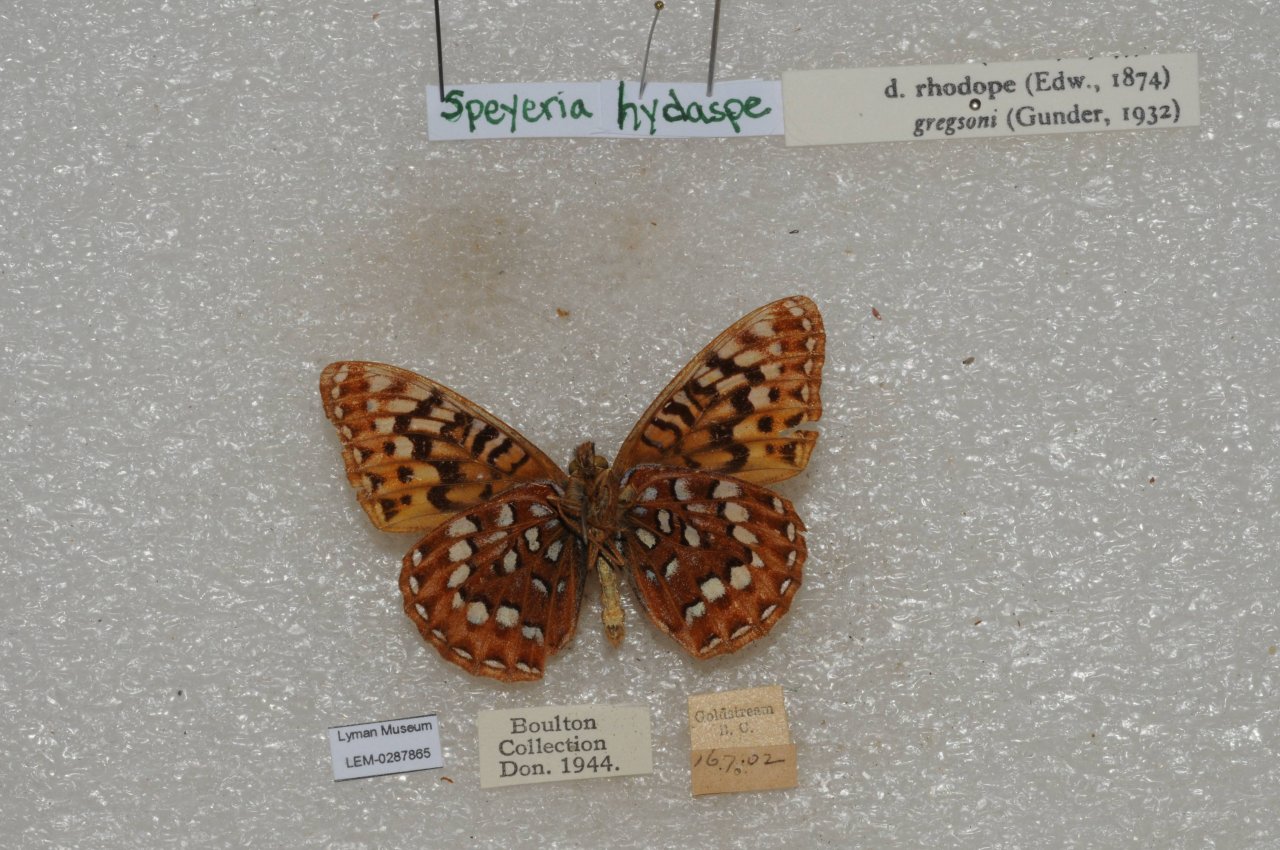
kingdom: Animalia
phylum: Arthropoda
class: Insecta
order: Lepidoptera
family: Nymphalidae
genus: Speyeria
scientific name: Speyeria hydaspe
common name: Hydaspe Fritillary
